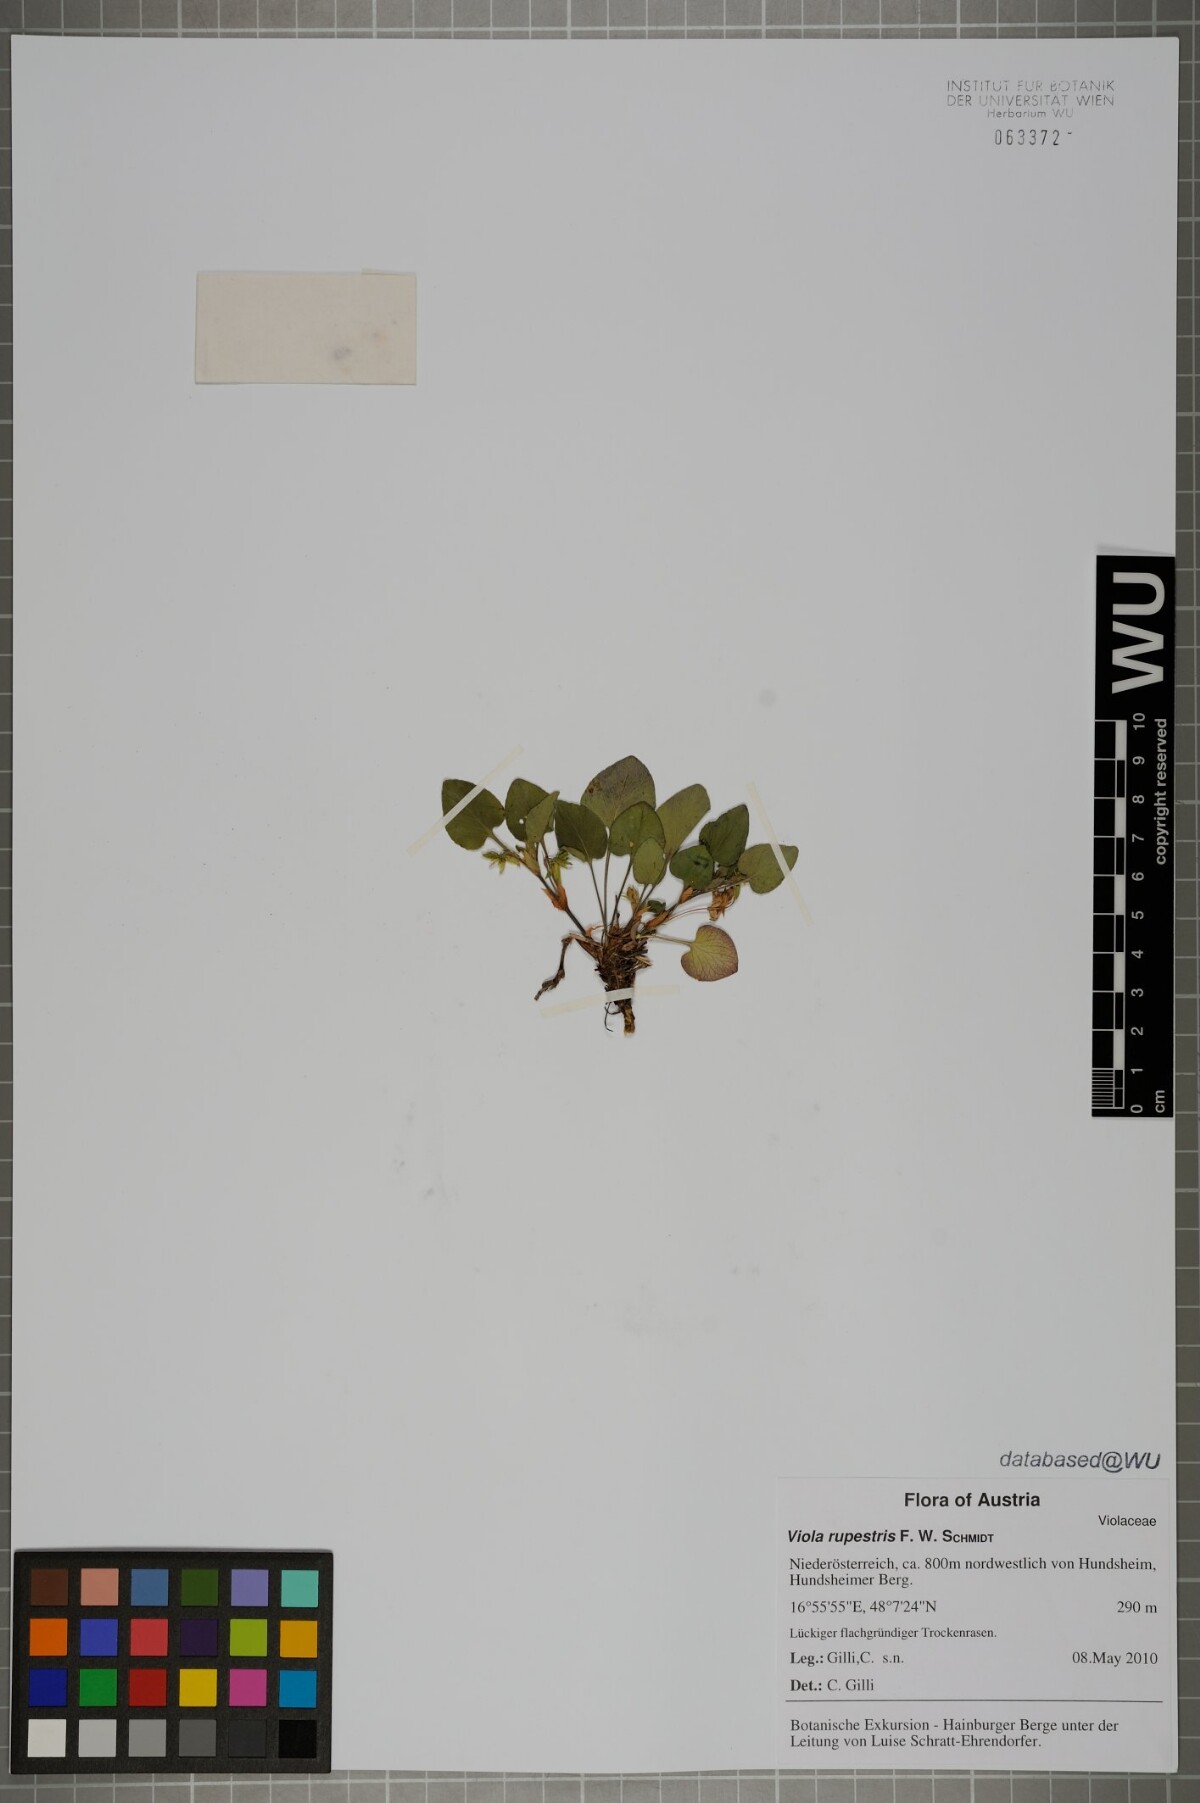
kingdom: Plantae
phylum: Tracheophyta
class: Magnoliopsida
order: Malpighiales
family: Violaceae
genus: Viola
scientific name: Viola rupestris
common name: Teesdale violet
